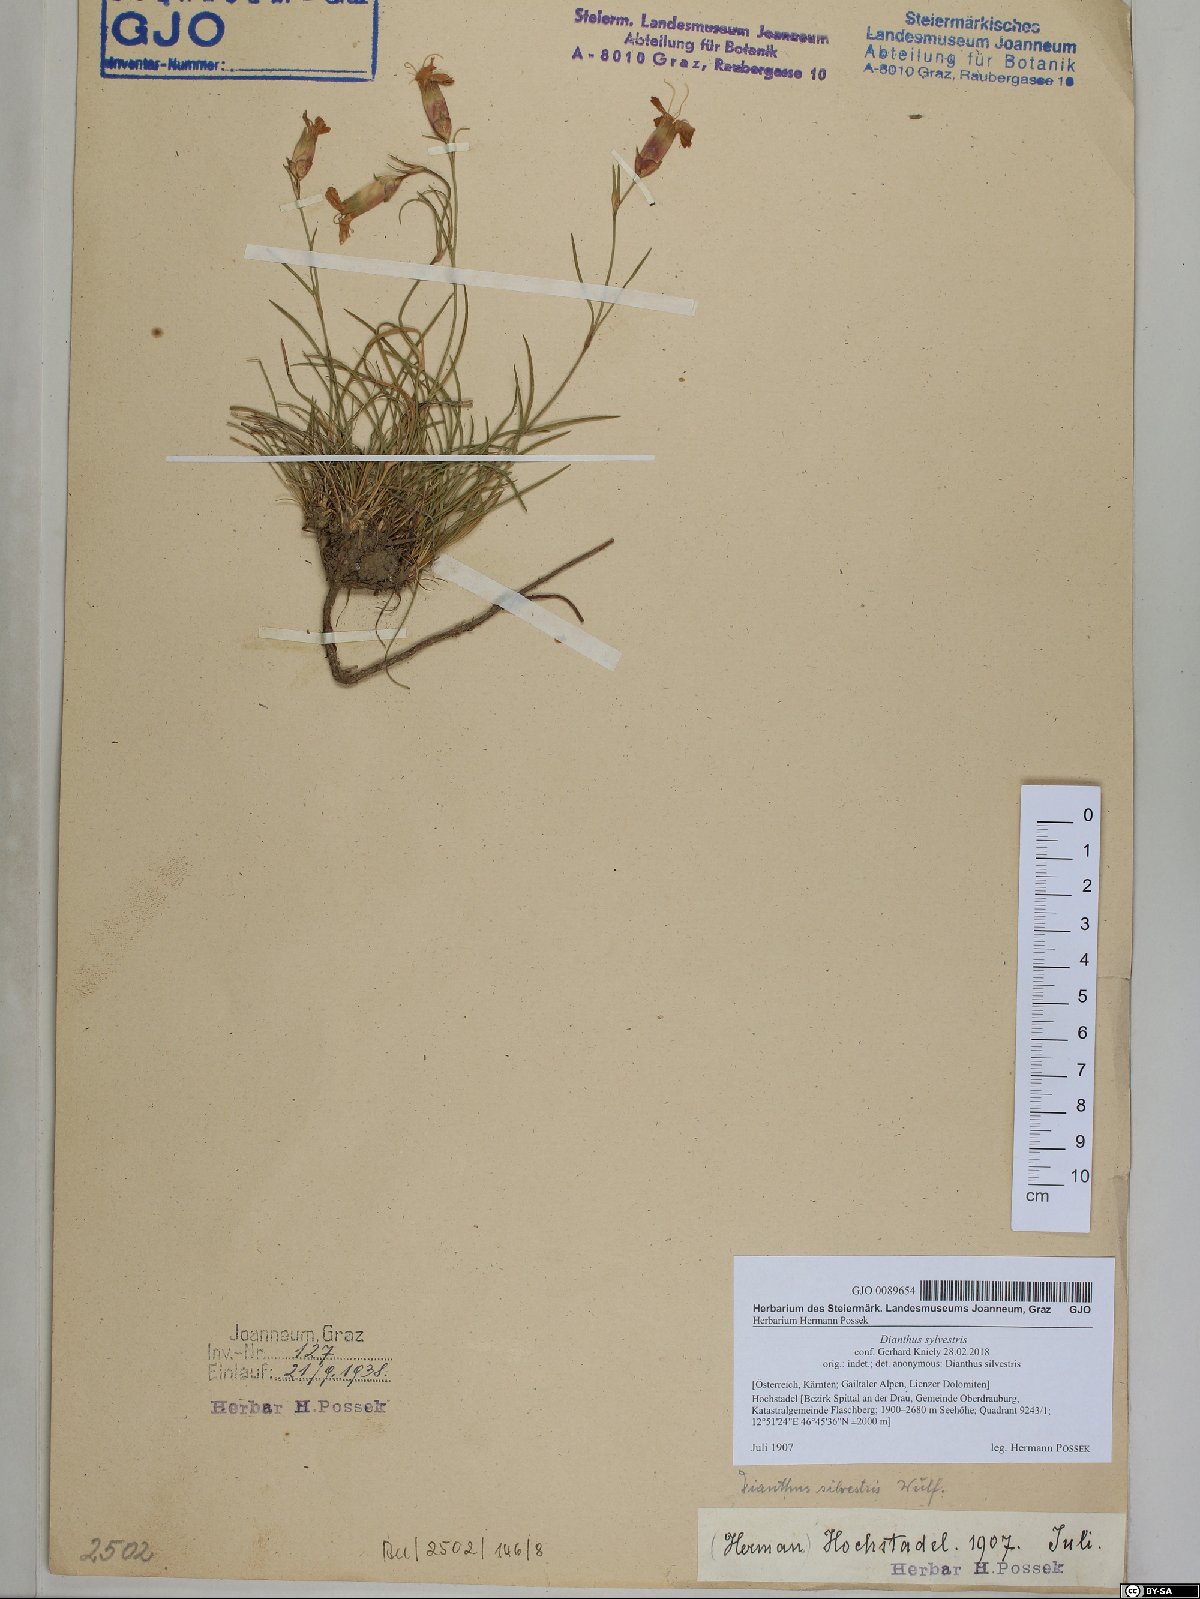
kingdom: Plantae
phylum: Tracheophyta
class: Magnoliopsida
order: Caryophyllales
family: Caryophyllaceae
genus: Dianthus
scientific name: Dianthus sylvestris
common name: Wood pink
